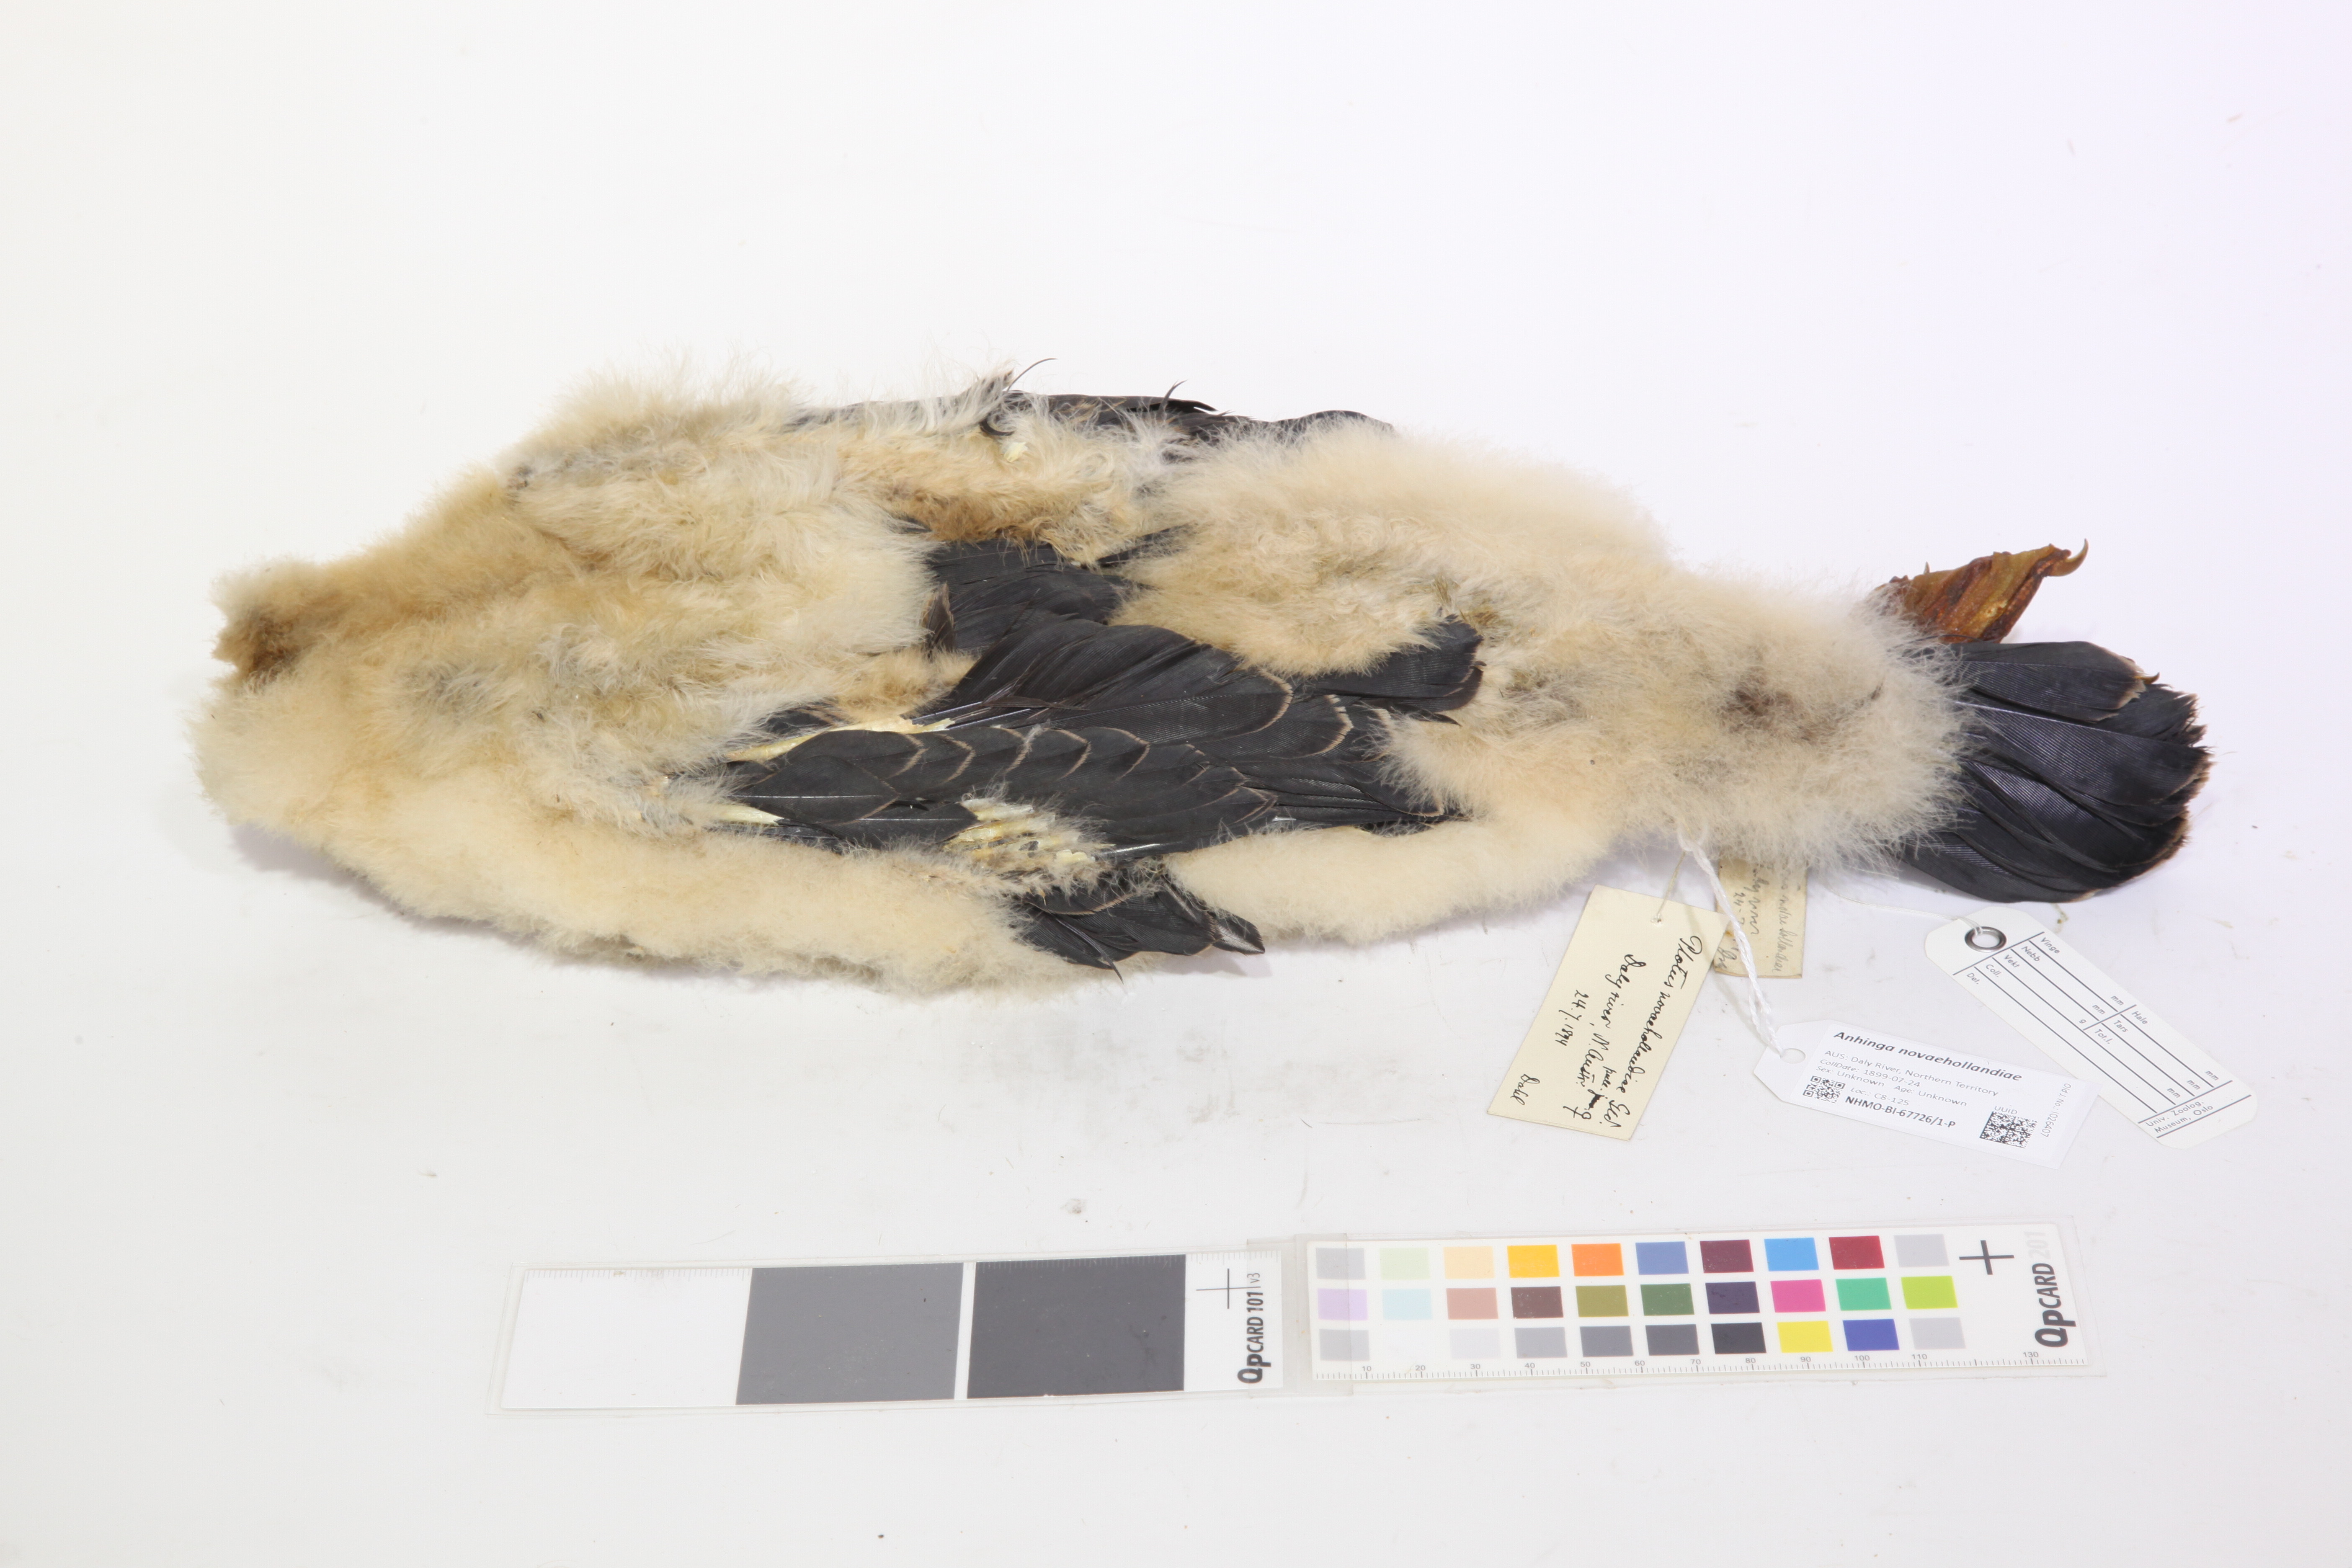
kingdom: Animalia
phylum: Chordata
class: Aves
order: Suliformes
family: Anhingidae
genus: Anhinga
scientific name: Anhinga novaehollandiae
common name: Australasian darter
